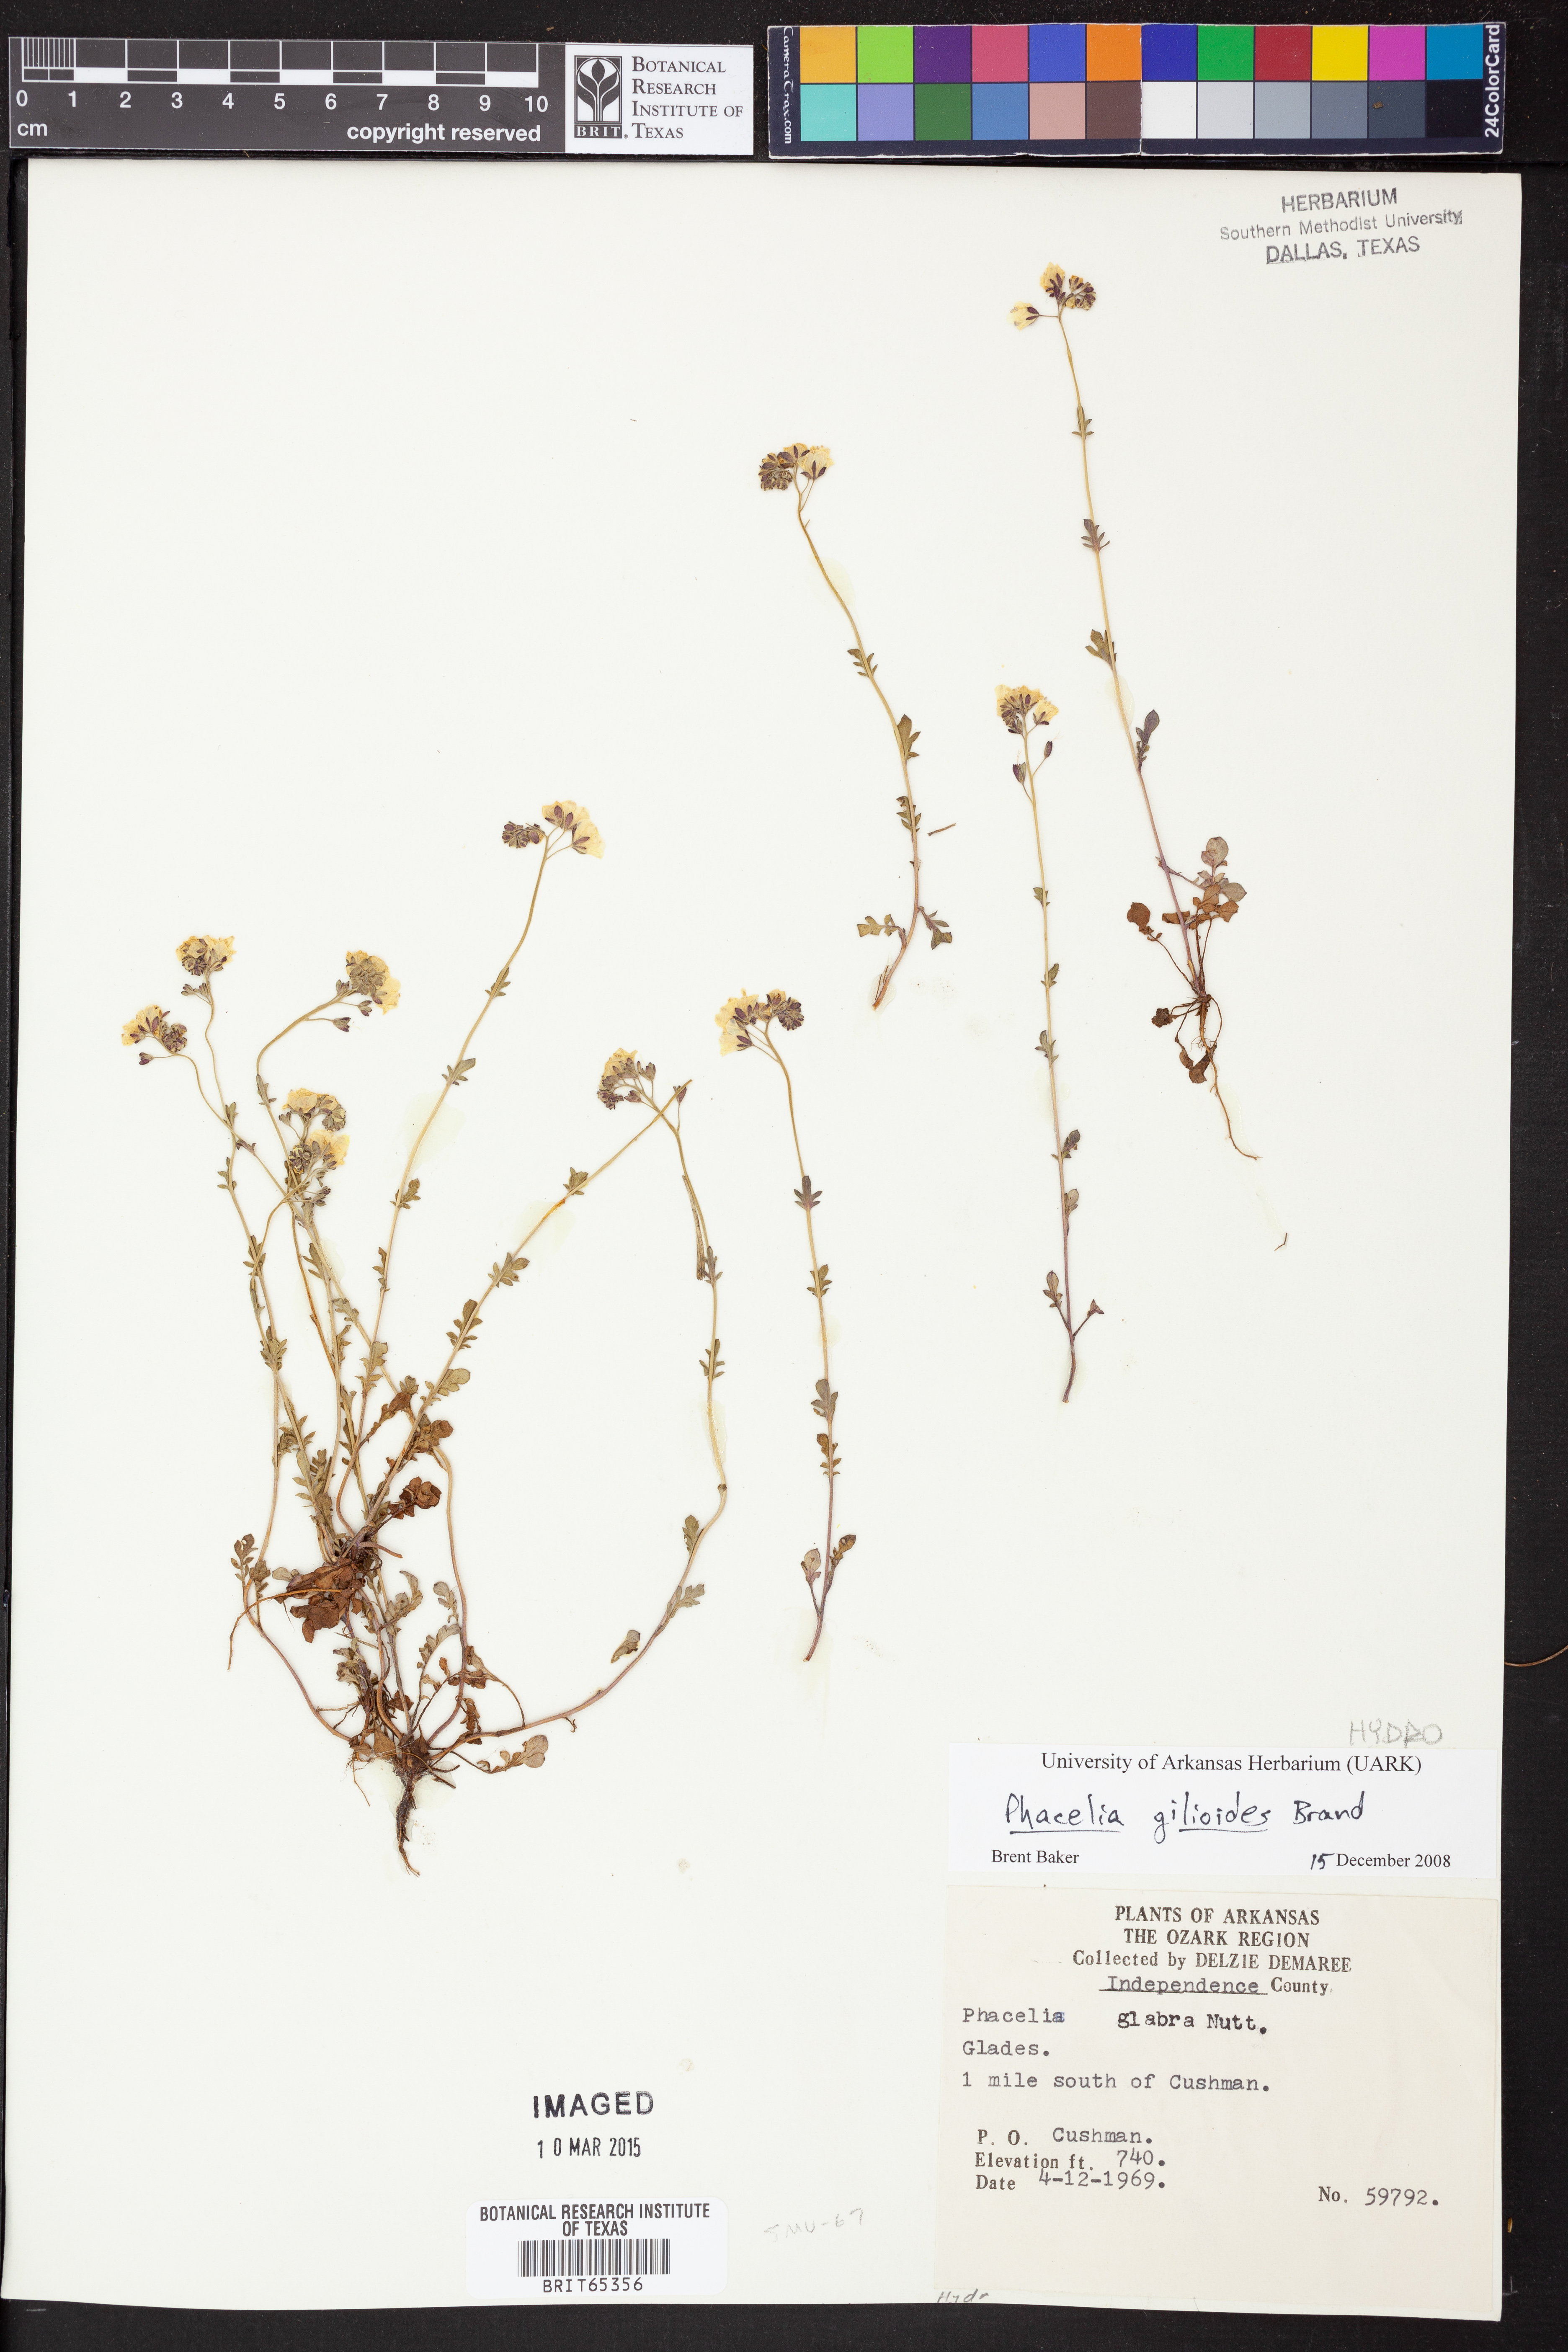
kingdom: Plantae
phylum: Tracheophyta
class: Magnoliopsida
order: Boraginales
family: Hydrophyllaceae
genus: Phacelia
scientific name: Phacelia
